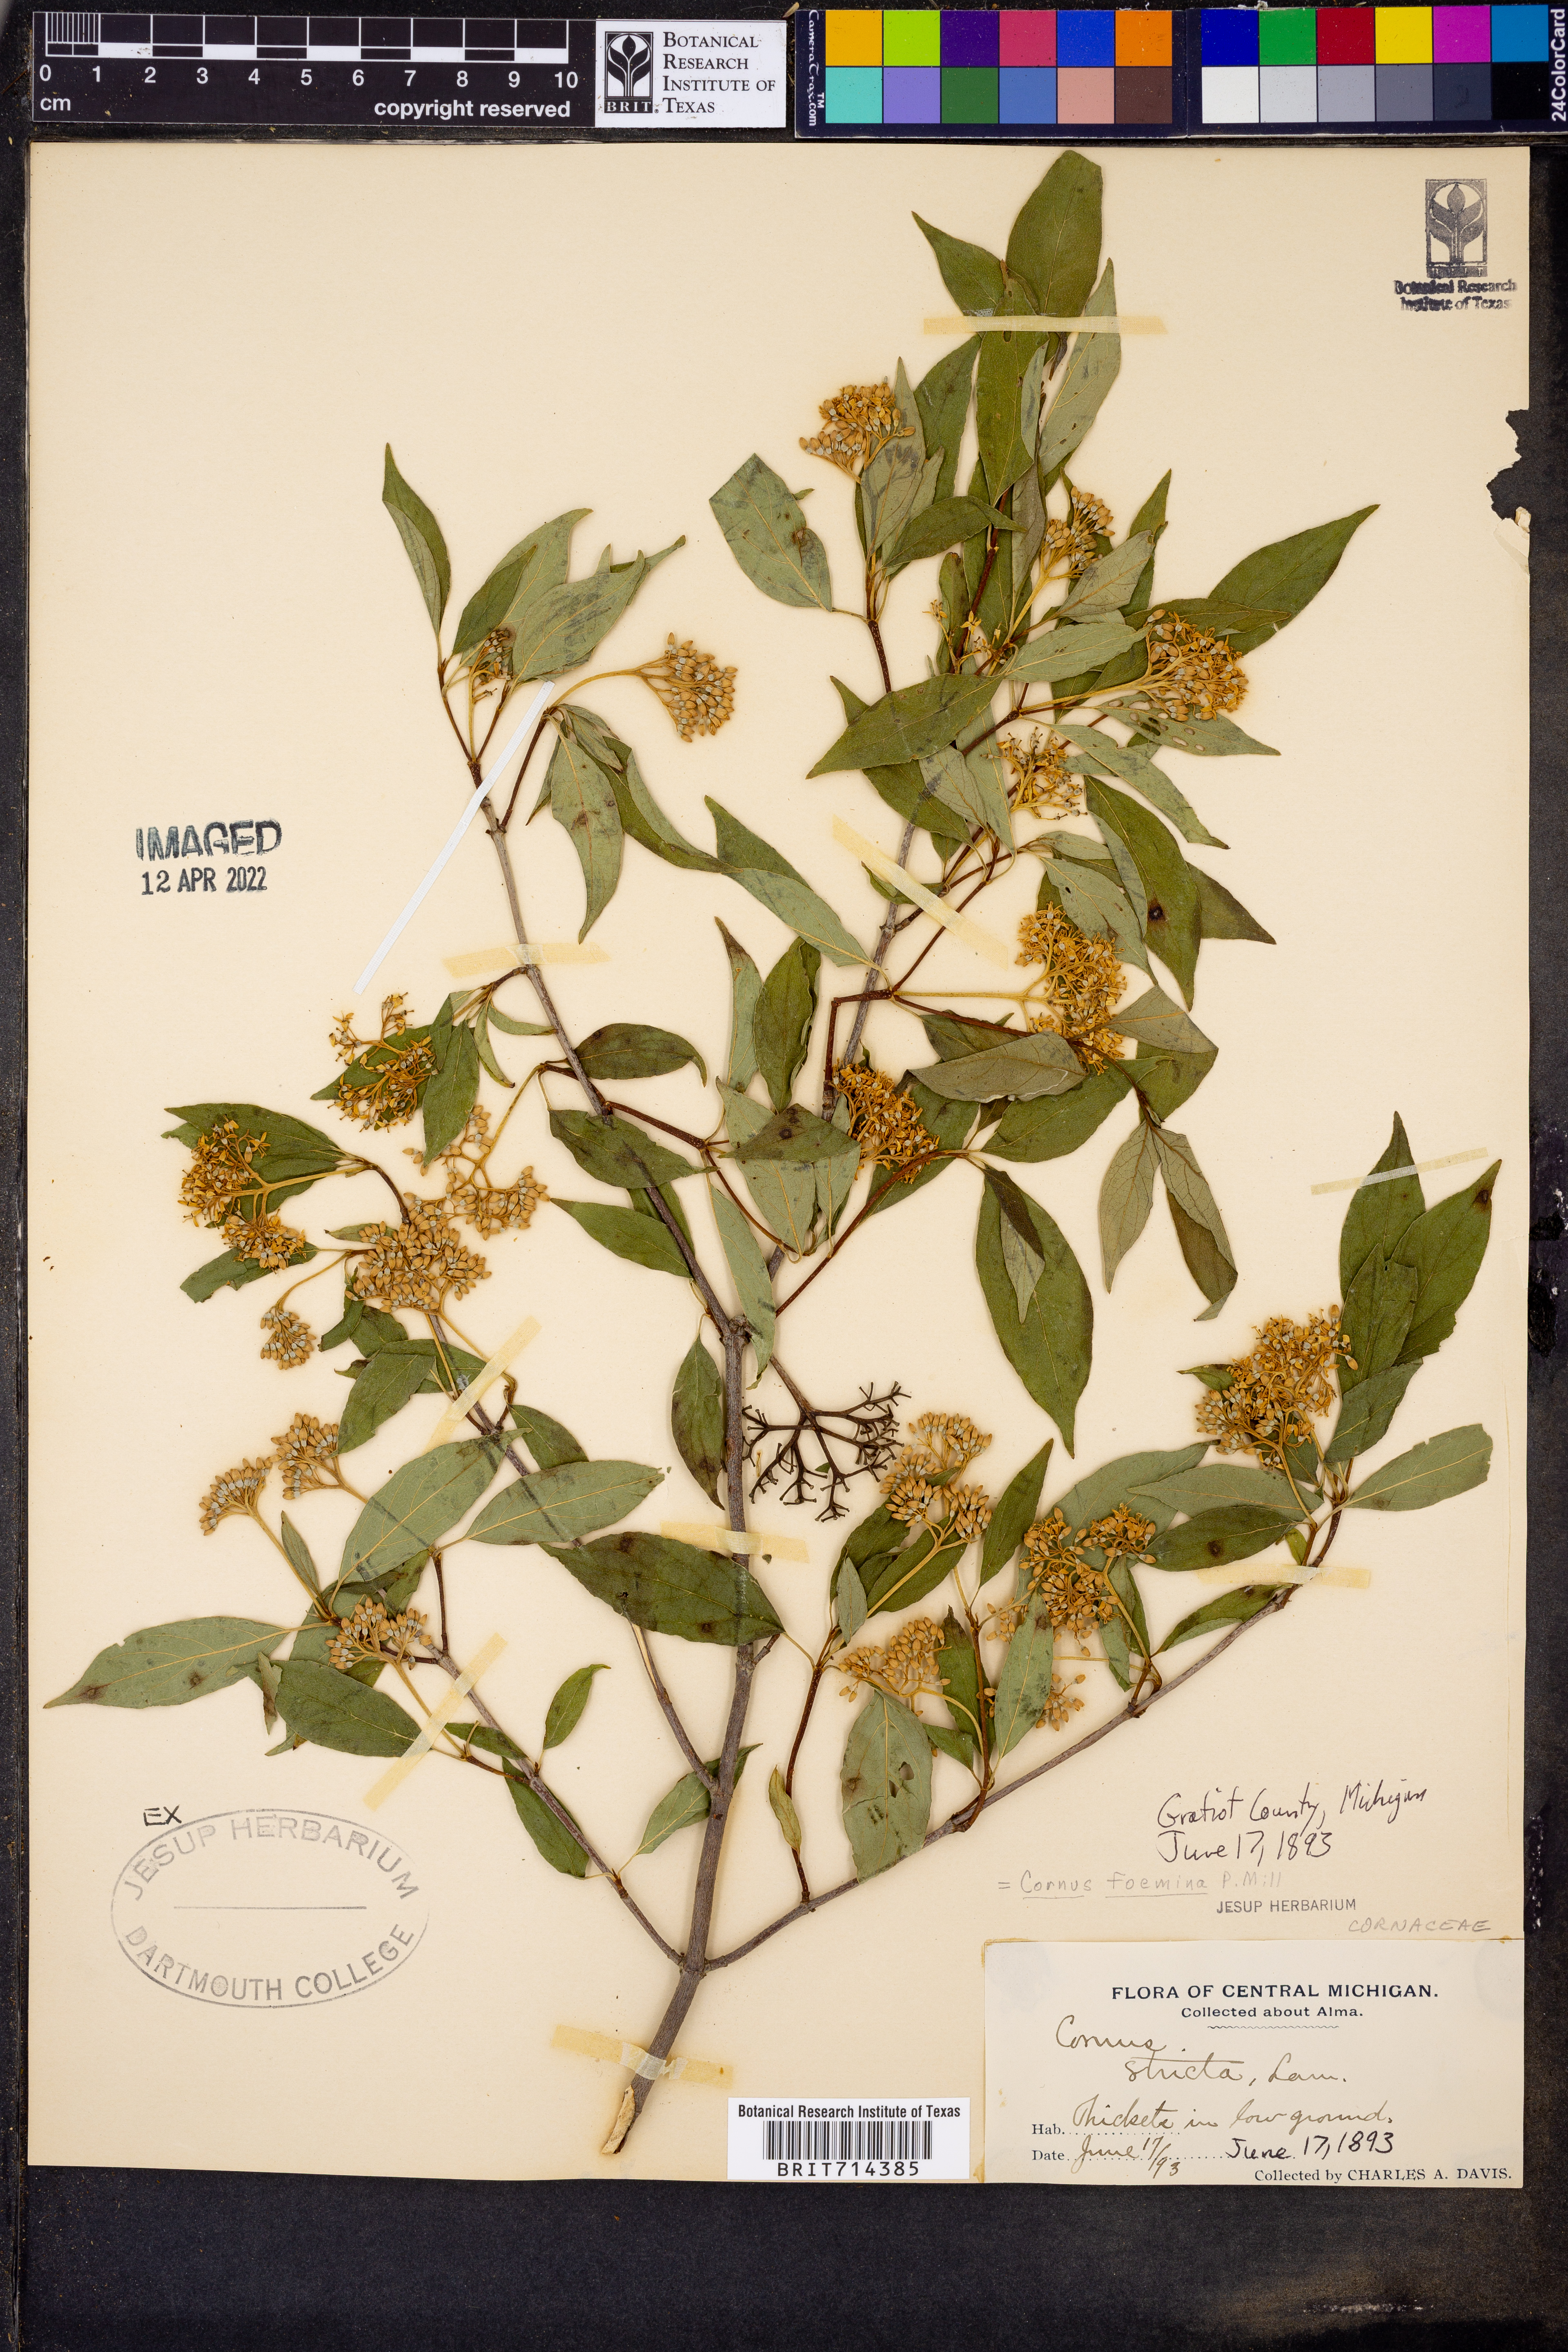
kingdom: Plantae
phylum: Tracheophyta
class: Magnoliopsida
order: Cornales
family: Cornaceae
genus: Cornus
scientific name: Cornus foemina
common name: Swamp dogwood
